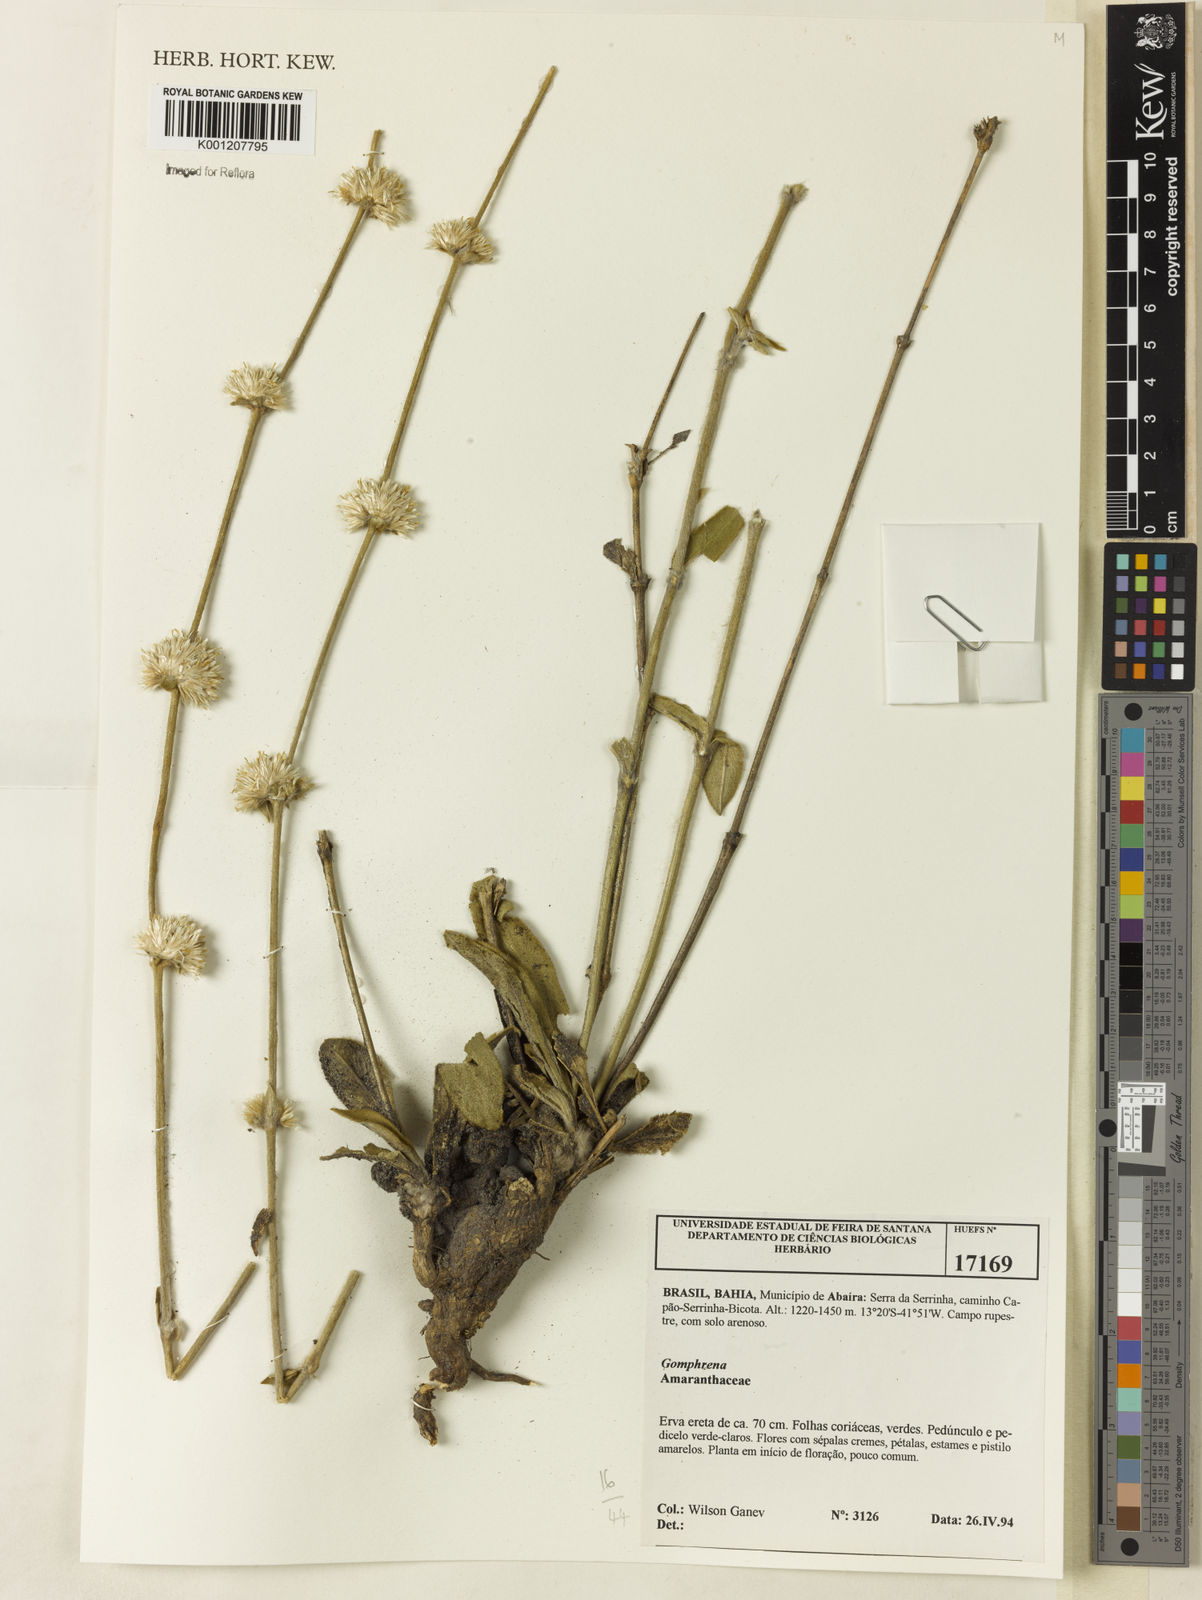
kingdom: Plantae
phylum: Tracheophyta
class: Magnoliopsida
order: Caryophyllales
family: Amaranthaceae
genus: Gomphrena
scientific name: Gomphrena
